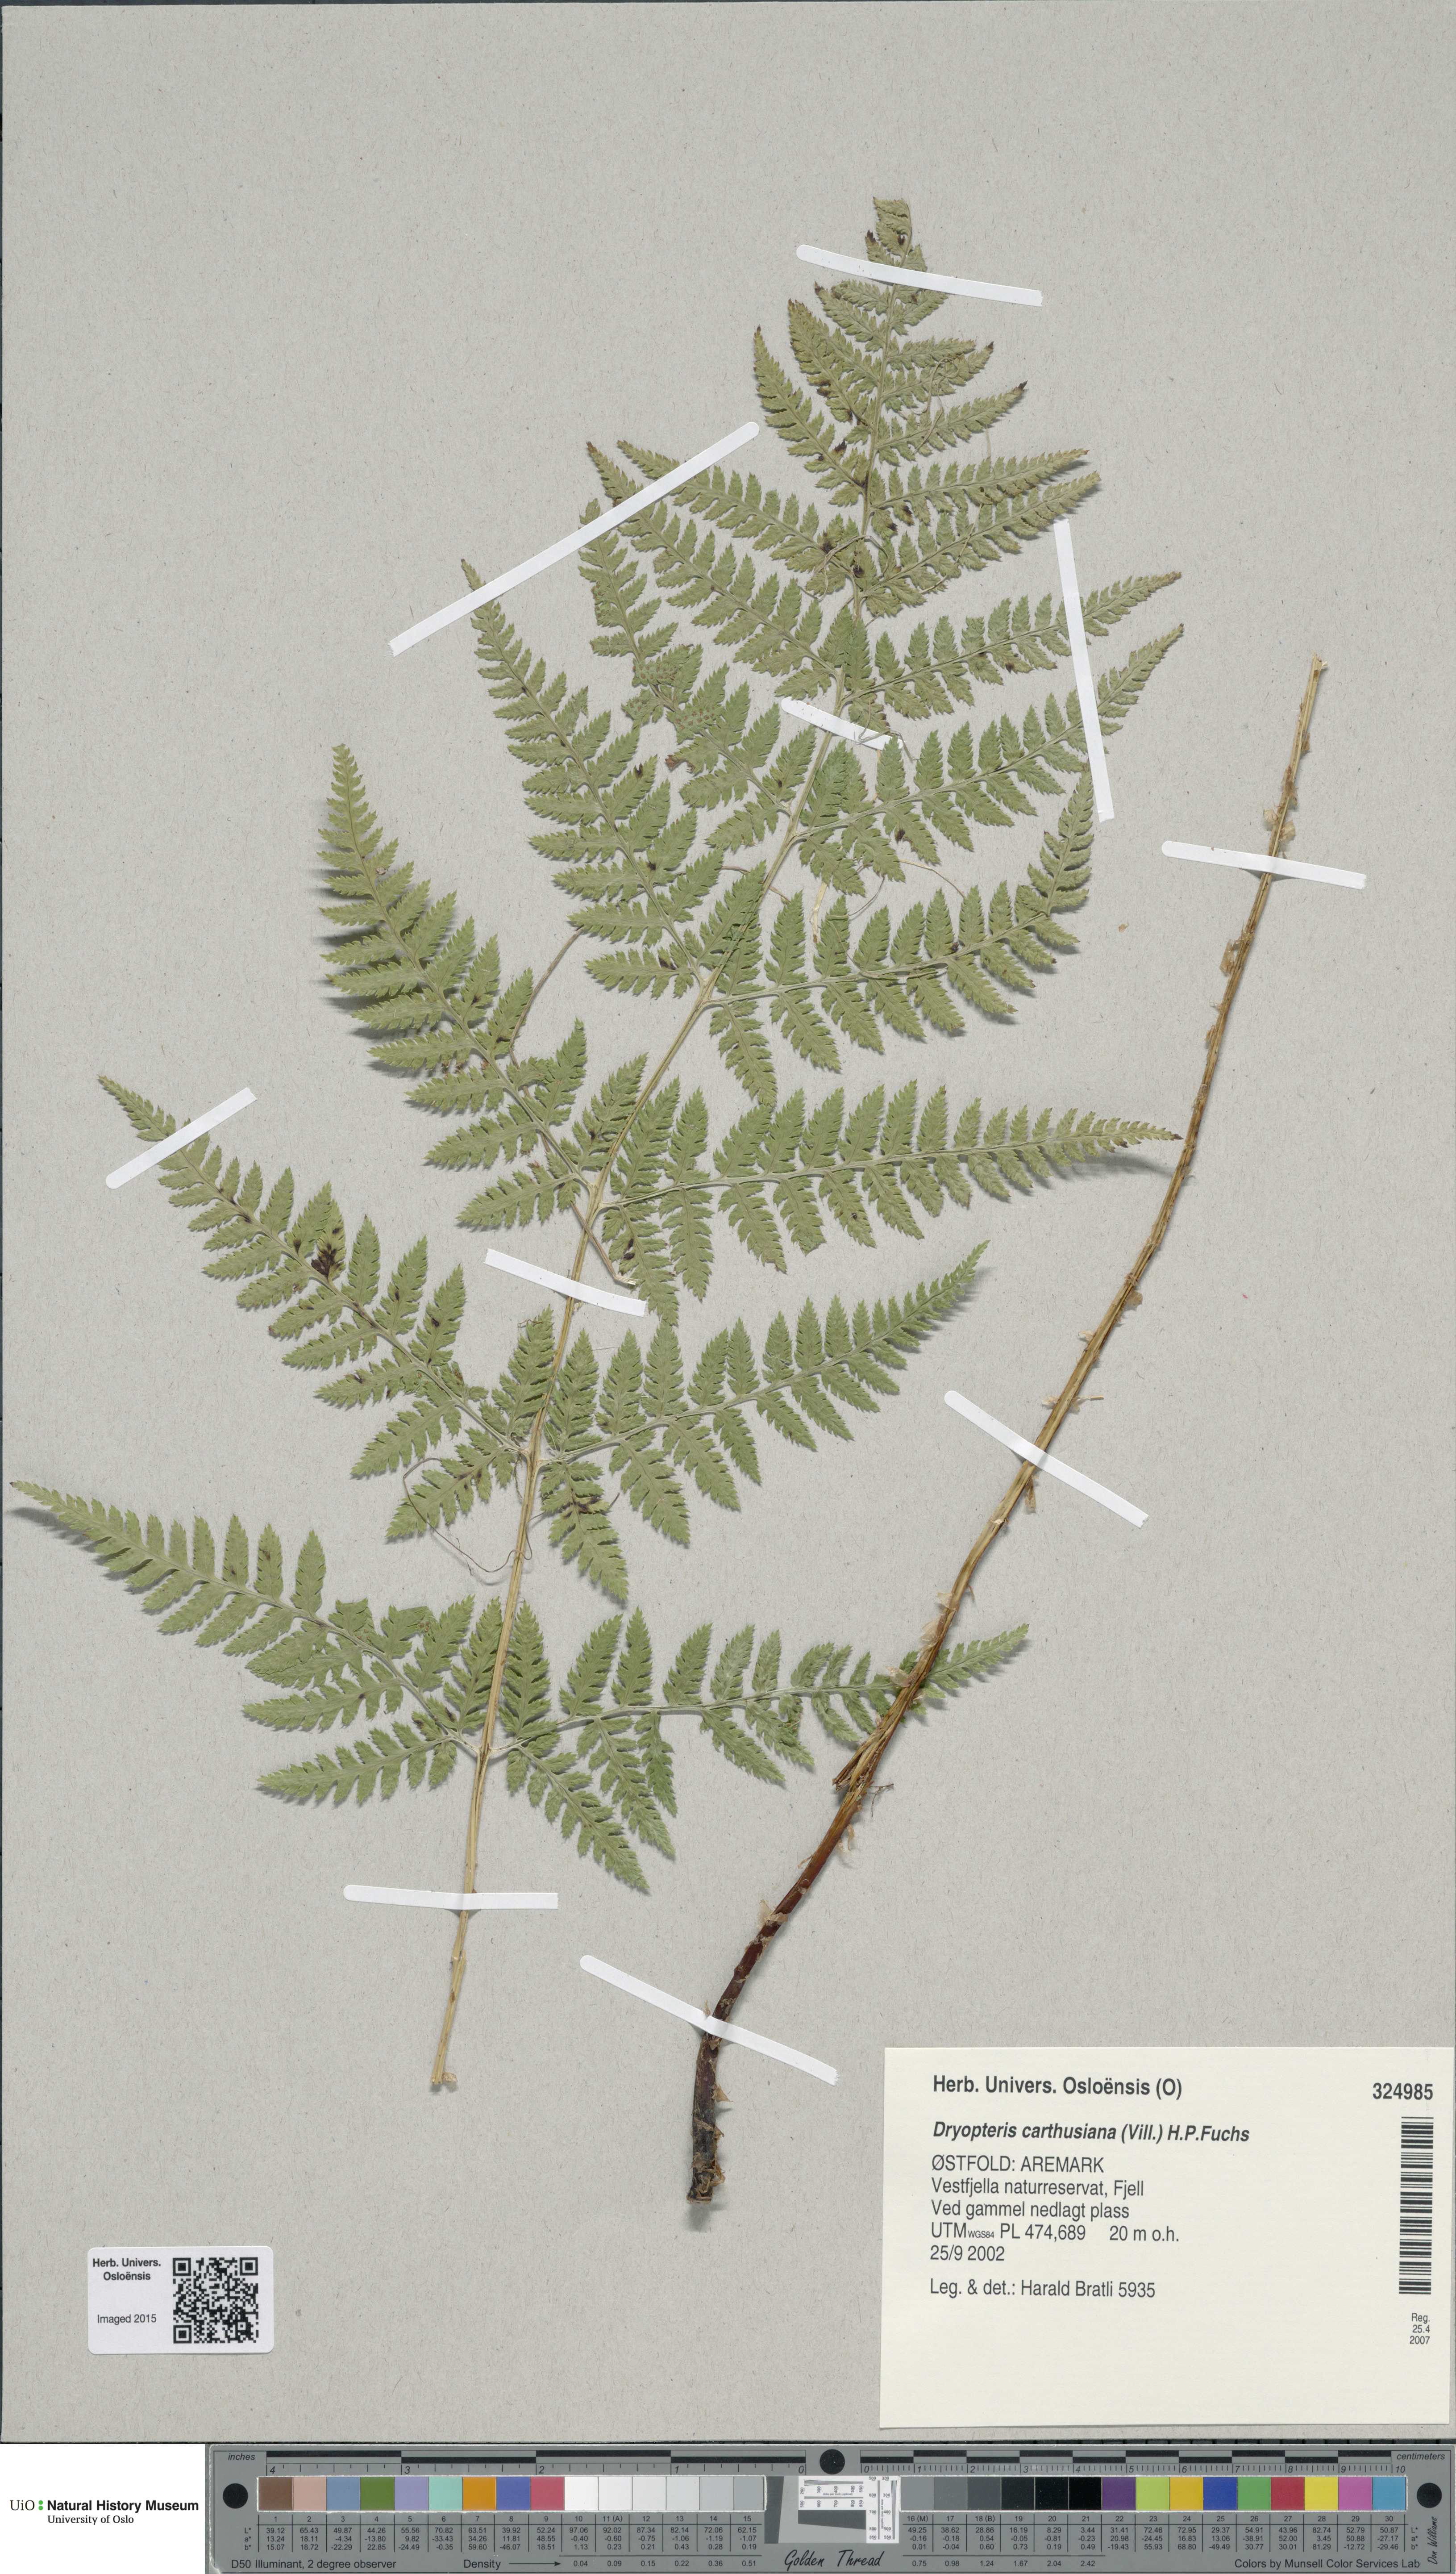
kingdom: Plantae
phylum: Tracheophyta
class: Polypodiopsida
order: Polypodiales
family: Dryopteridaceae
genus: Dryopteris
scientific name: Dryopteris carthusiana
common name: Narrow buckler-fern
